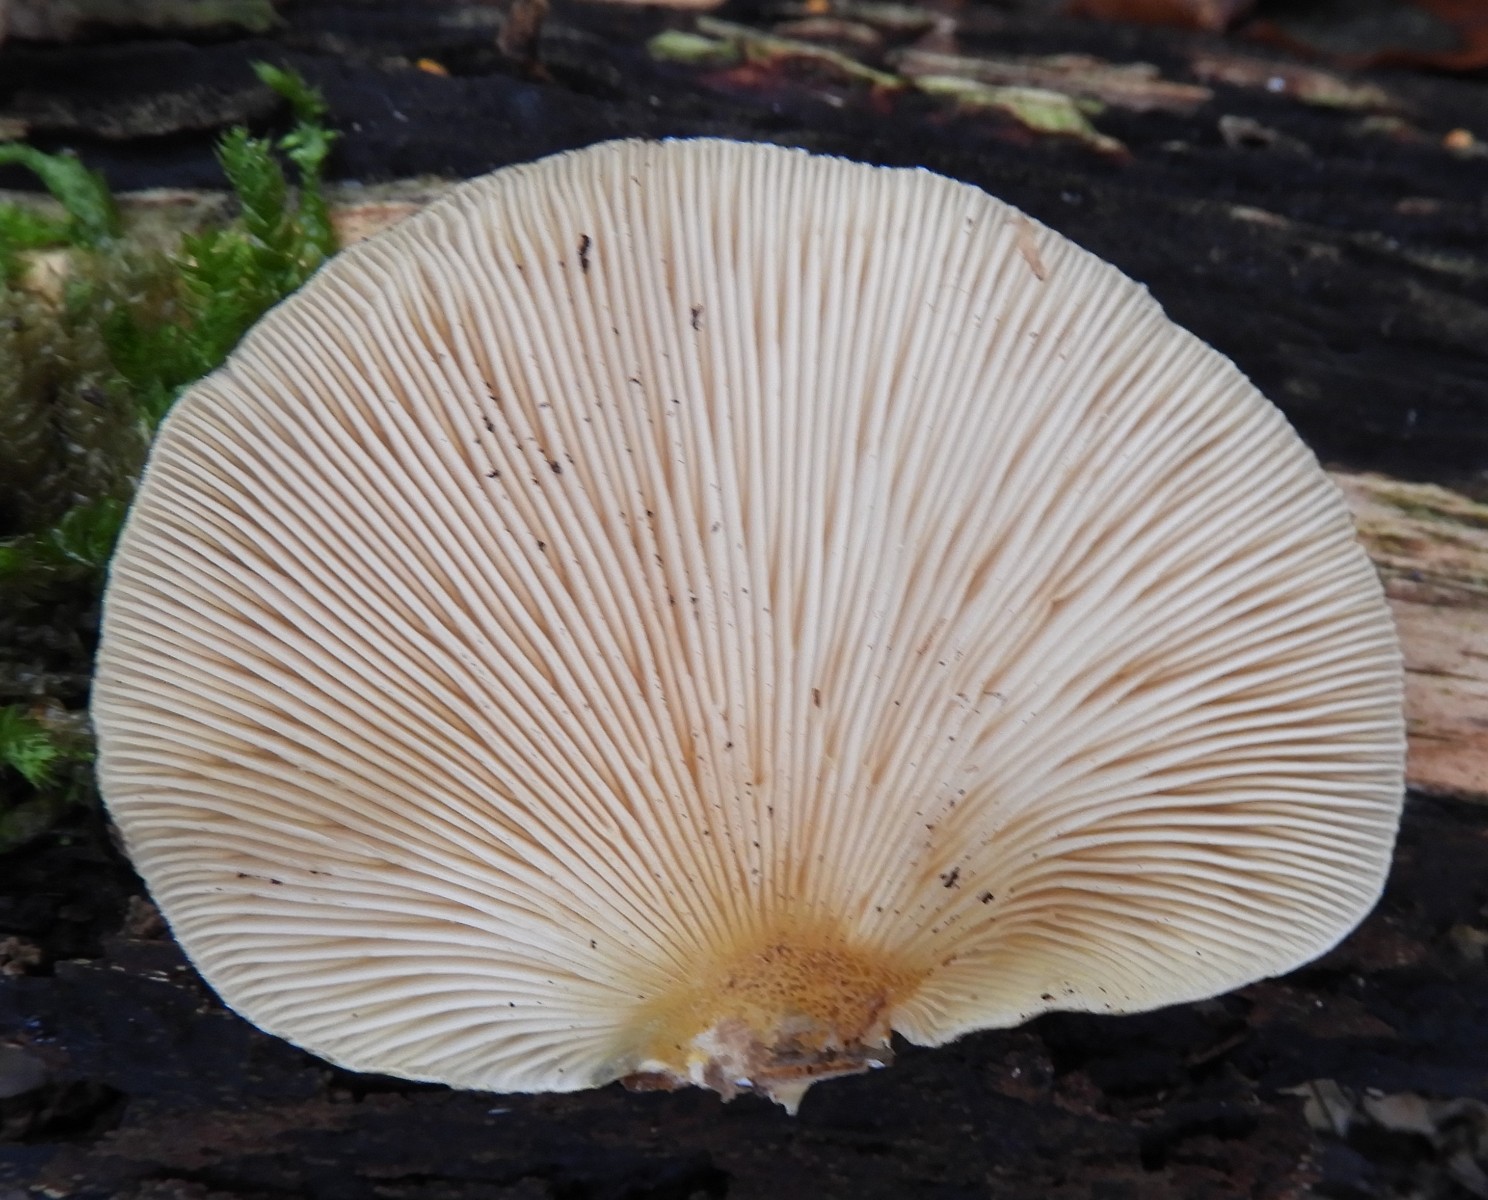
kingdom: Fungi
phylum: Basidiomycota
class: Agaricomycetes
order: Agaricales
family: Sarcomyxaceae
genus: Sarcomyxa
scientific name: Sarcomyxa serotina
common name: gummihat
